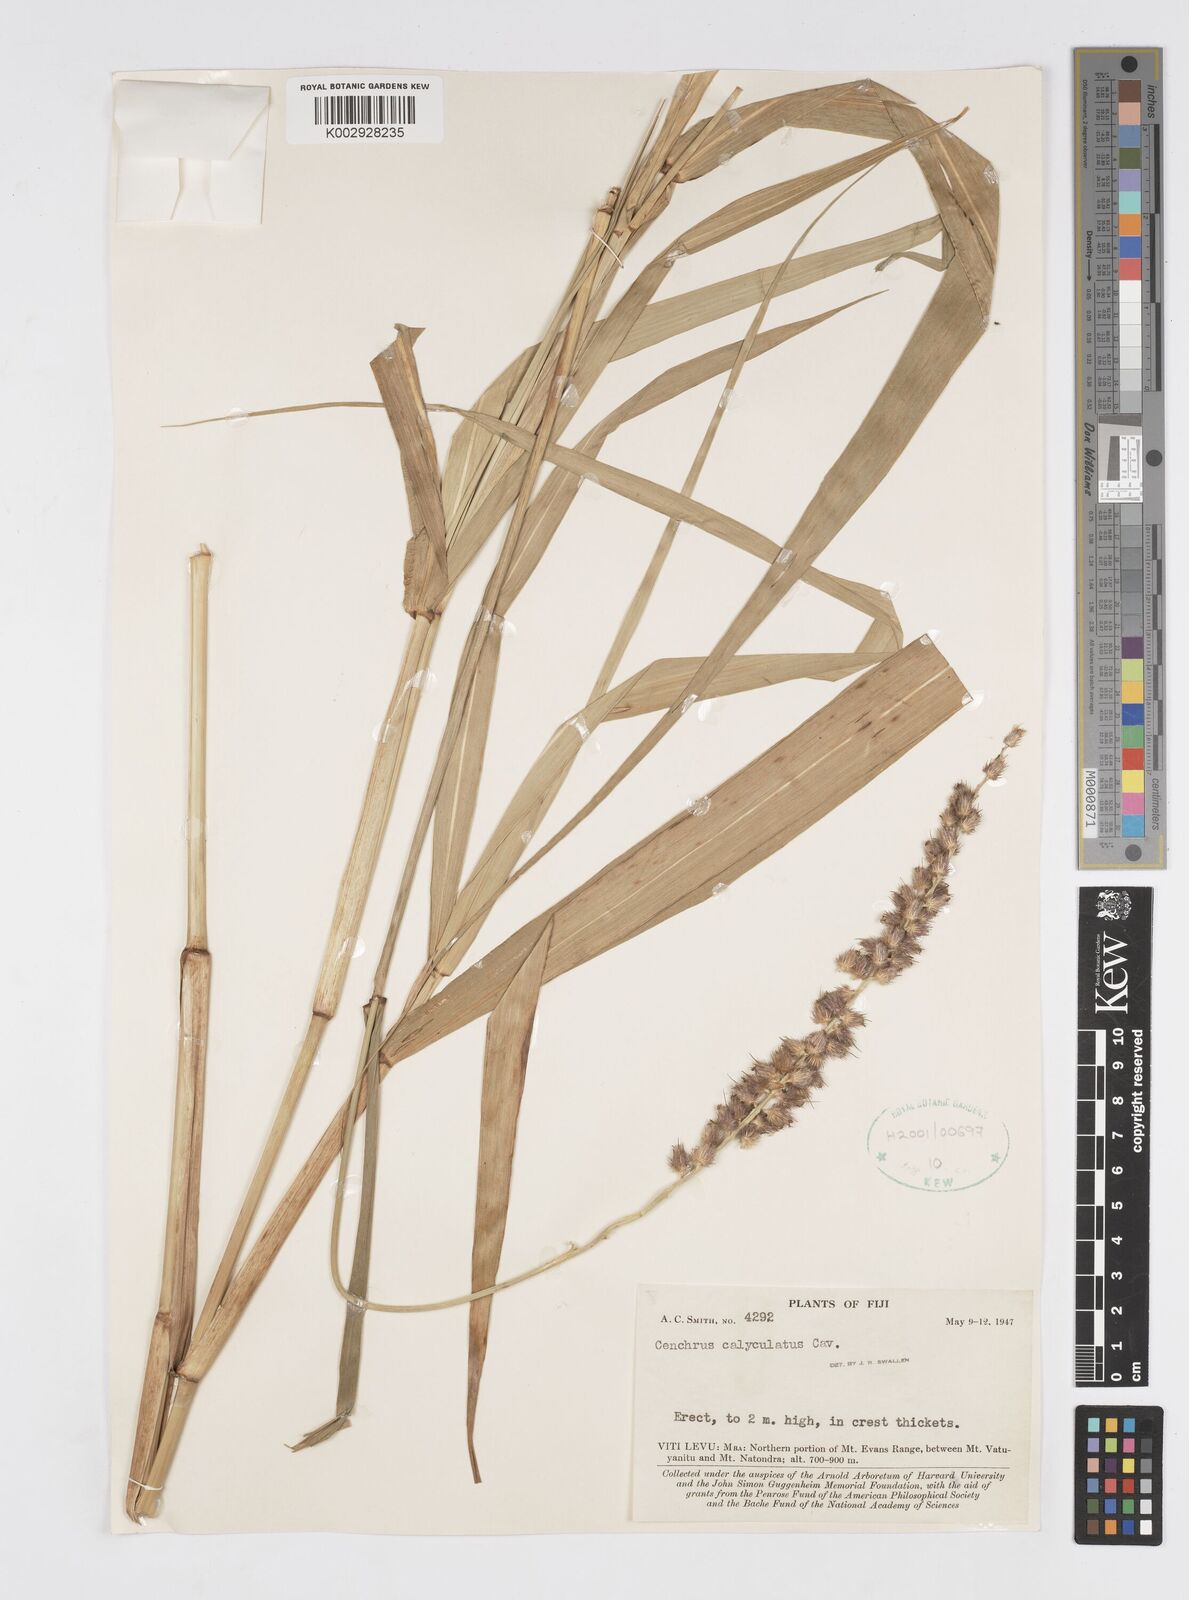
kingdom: Plantae
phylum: Tracheophyta
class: Liliopsida
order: Poales
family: Poaceae
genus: Cenchrus
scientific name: Cenchrus caliculatus
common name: Large bur grass
